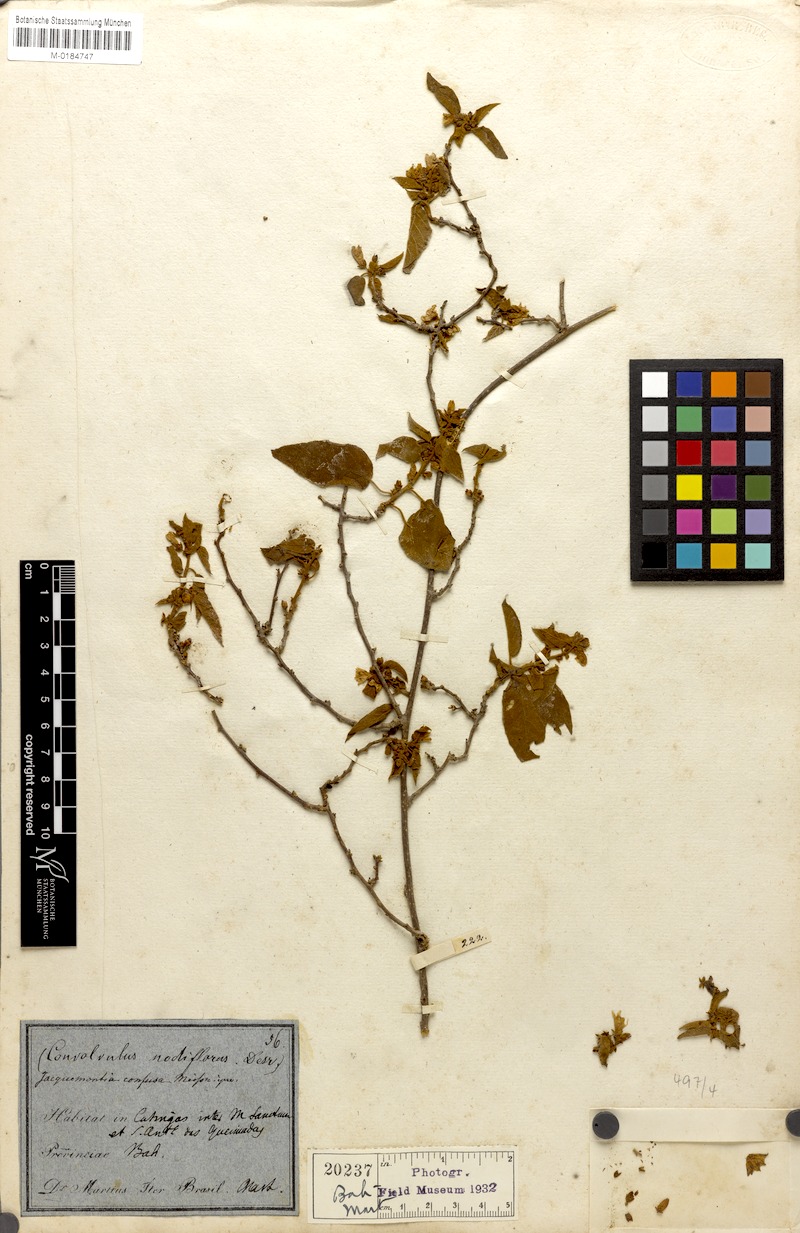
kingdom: Plantae
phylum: Tracheophyta
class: Magnoliopsida
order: Solanales
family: Convolvulaceae
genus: Jacquemontia
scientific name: Jacquemontia nodiflora
